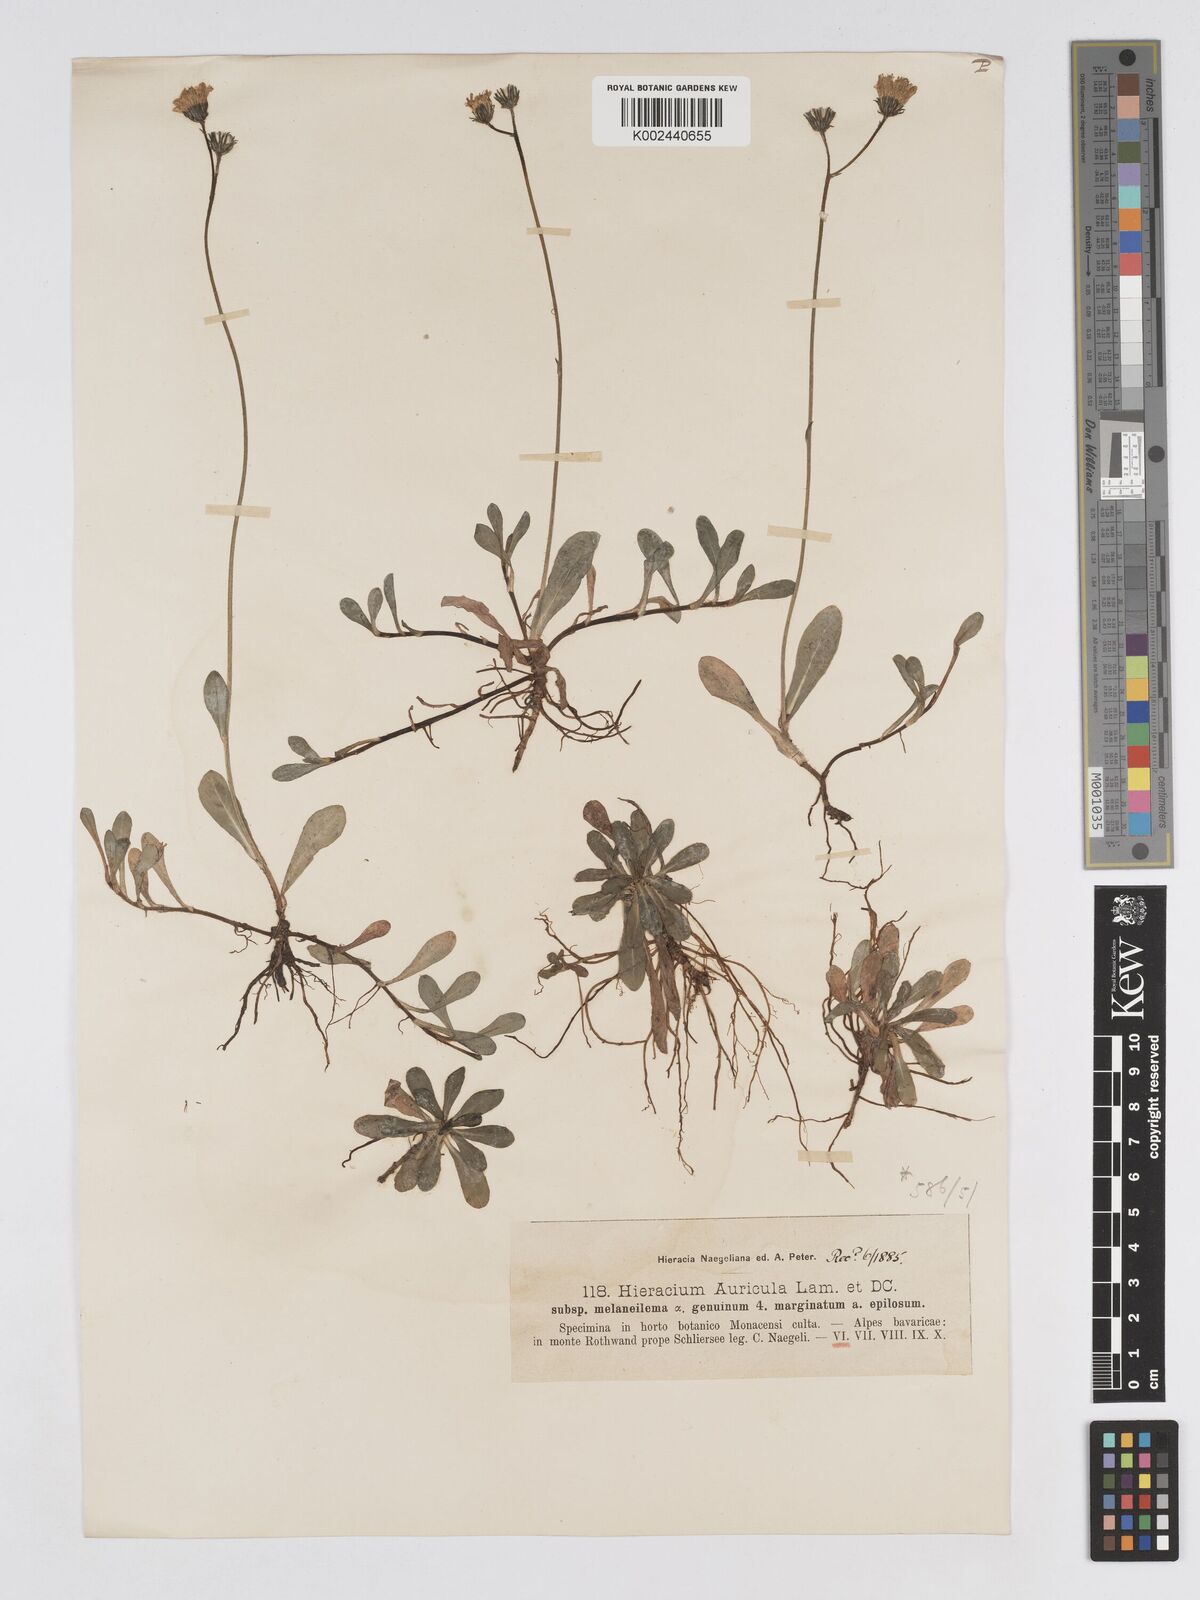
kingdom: Plantae
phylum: Tracheophyta
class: Magnoliopsida
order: Asterales
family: Asteraceae
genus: Pilosella
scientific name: Pilosella lactucella
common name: Glaucous fox-and-cubs
